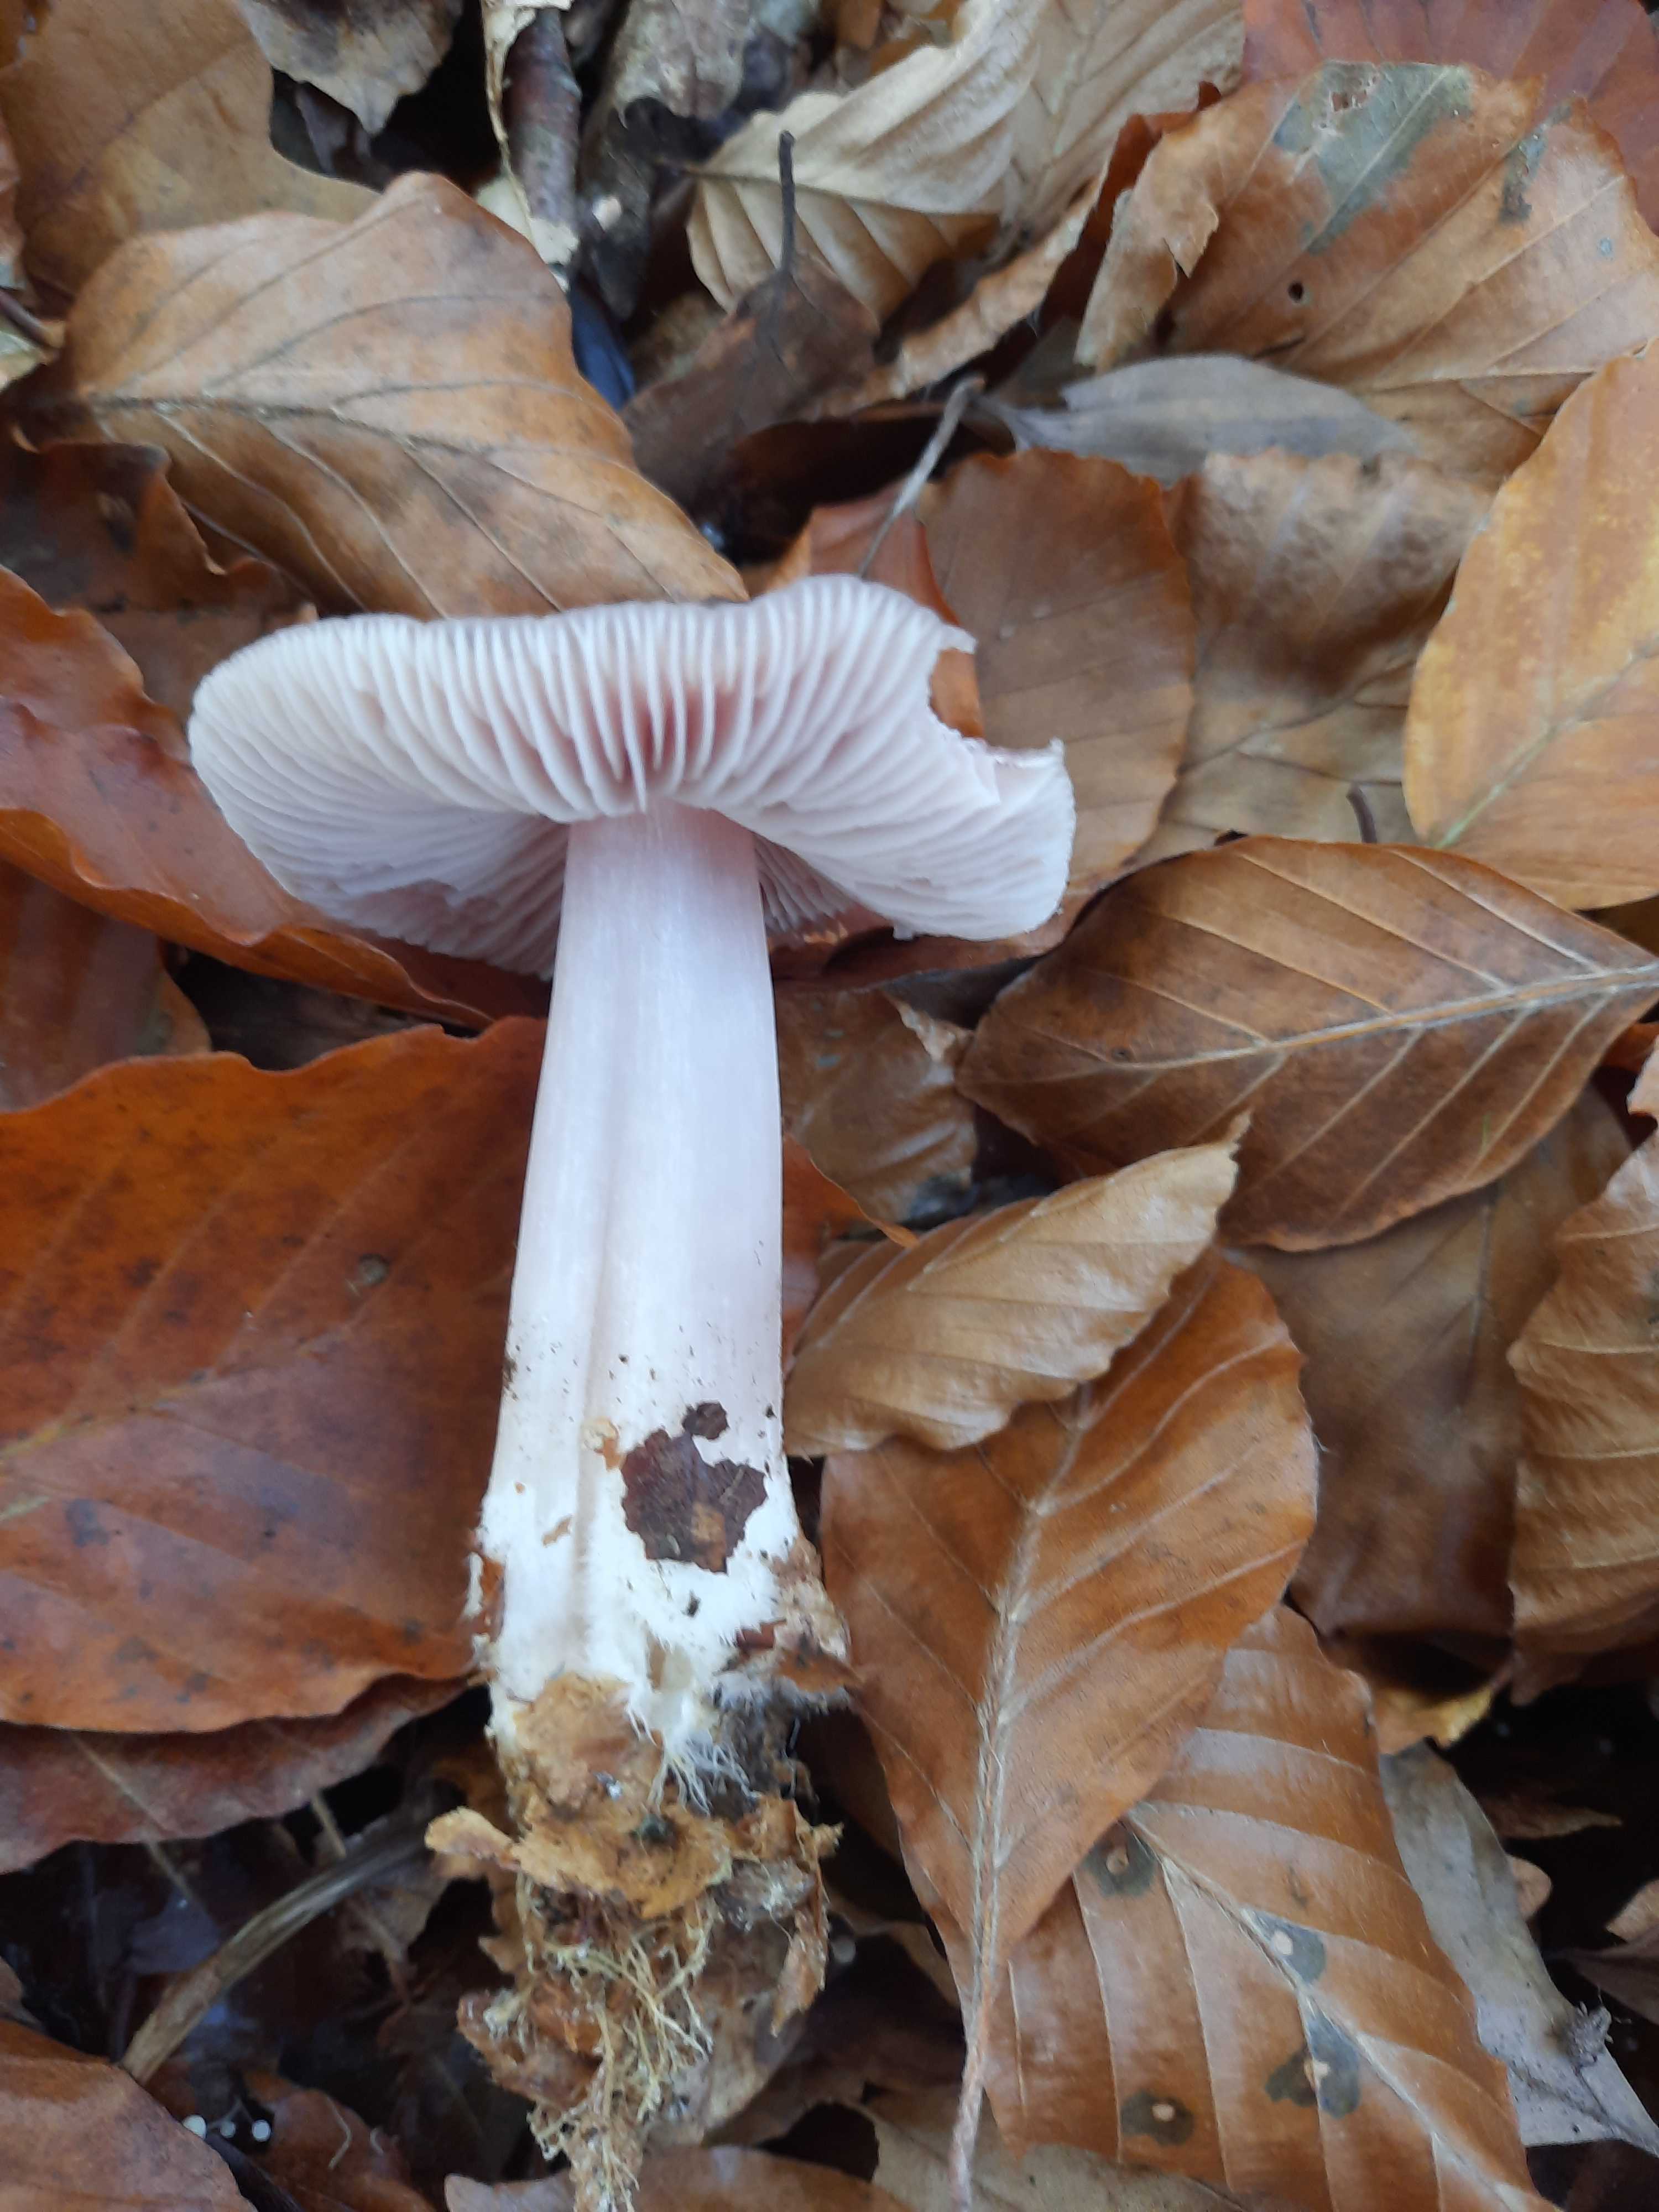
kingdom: Fungi
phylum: Basidiomycota
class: Agaricomycetes
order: Agaricales
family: Mycenaceae
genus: Mycena
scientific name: Mycena rosea
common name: rosa huesvamp
